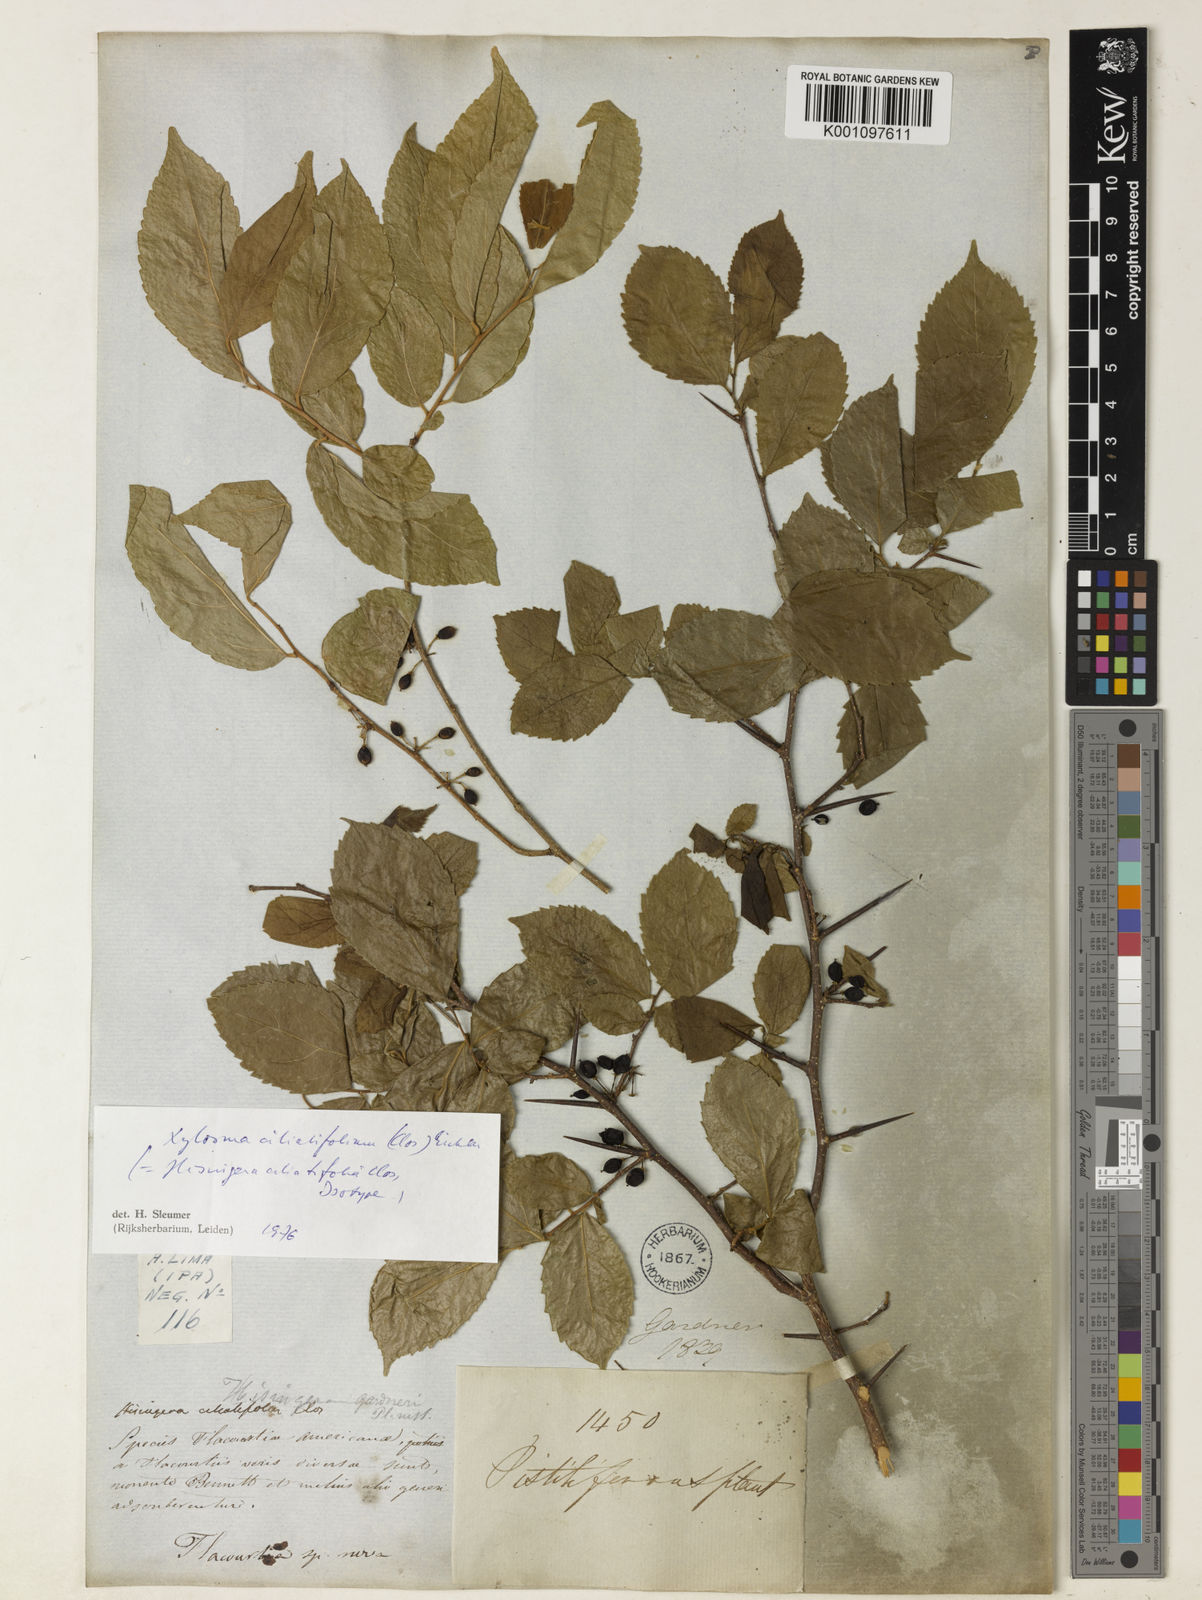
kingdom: Plantae
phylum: Tracheophyta
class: Magnoliopsida
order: Malpighiales
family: Salicaceae
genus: Xylosma
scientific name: Xylosma ciliatifolia
